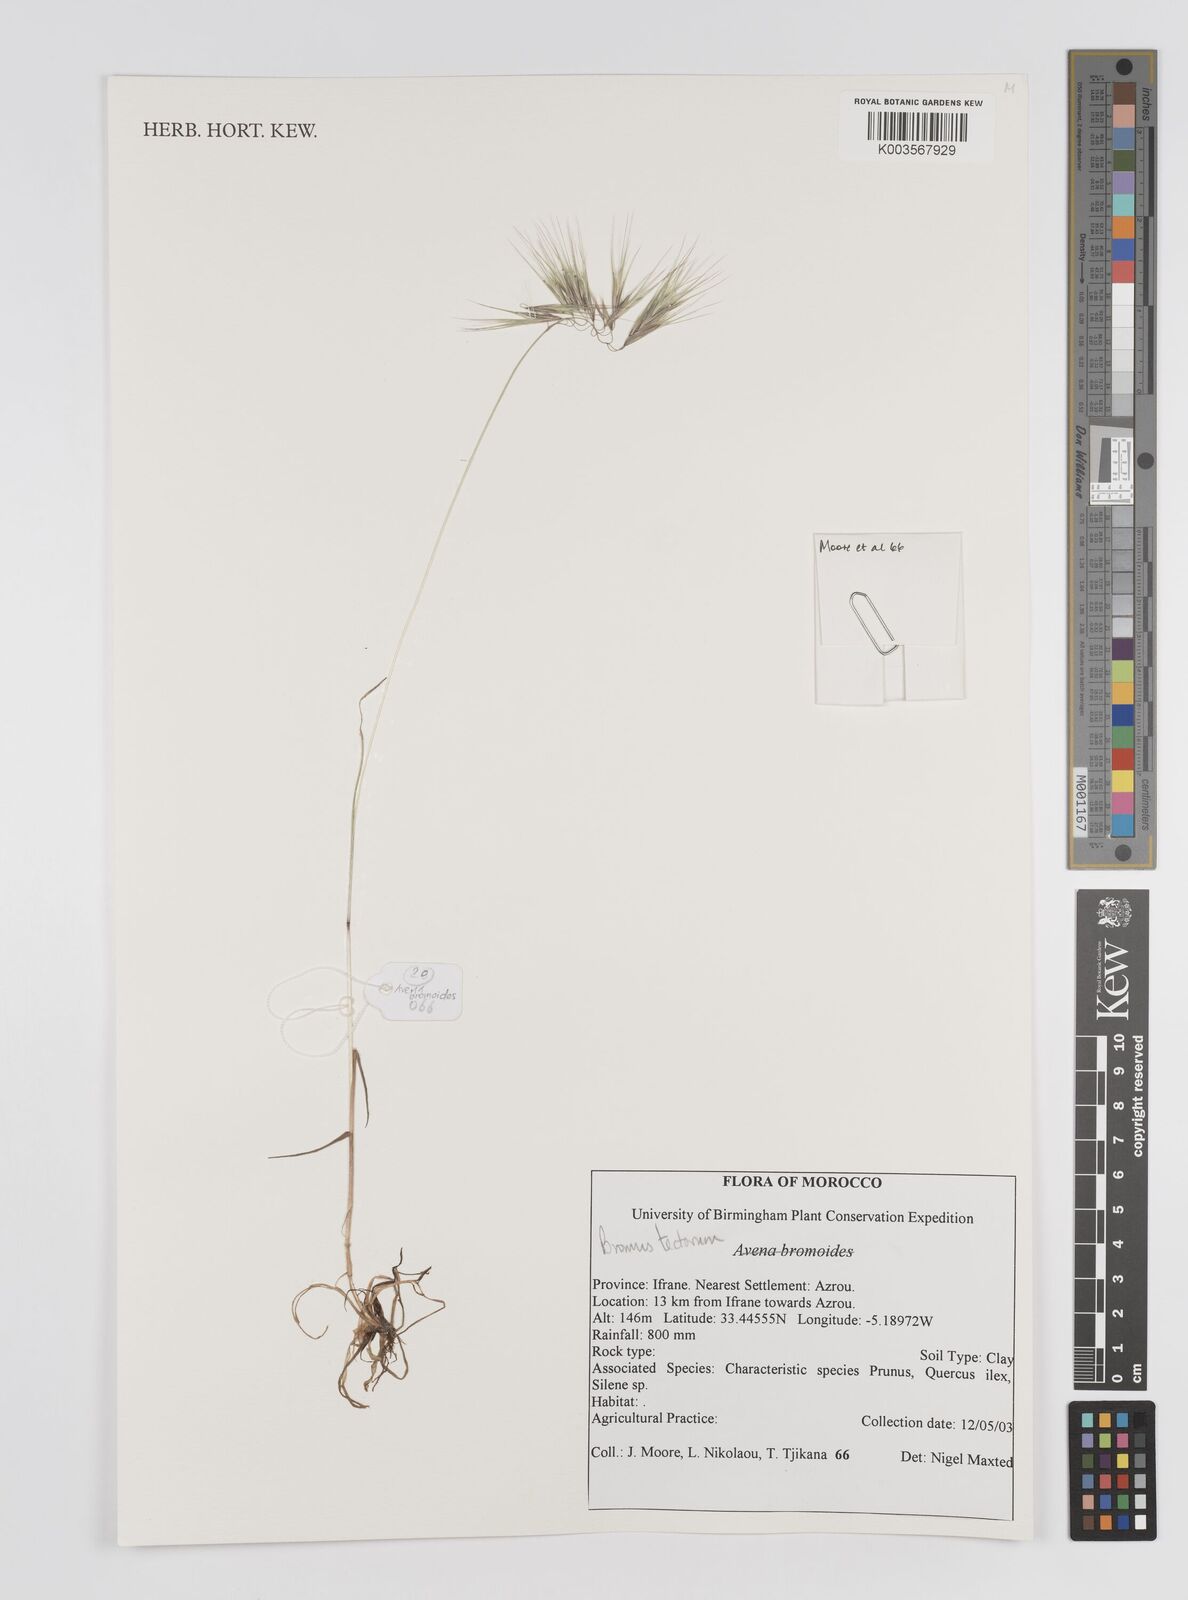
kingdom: Plantae
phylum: Tracheophyta
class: Liliopsida
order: Poales
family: Poaceae
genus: Bromus
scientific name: Bromus tectorum
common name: Cheatgrass
